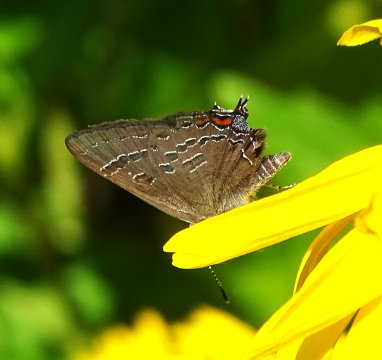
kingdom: Animalia
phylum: Arthropoda
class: Insecta
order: Lepidoptera
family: Lycaenidae
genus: Satyrium
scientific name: Satyrium calanus
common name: Banded Hairstreak
